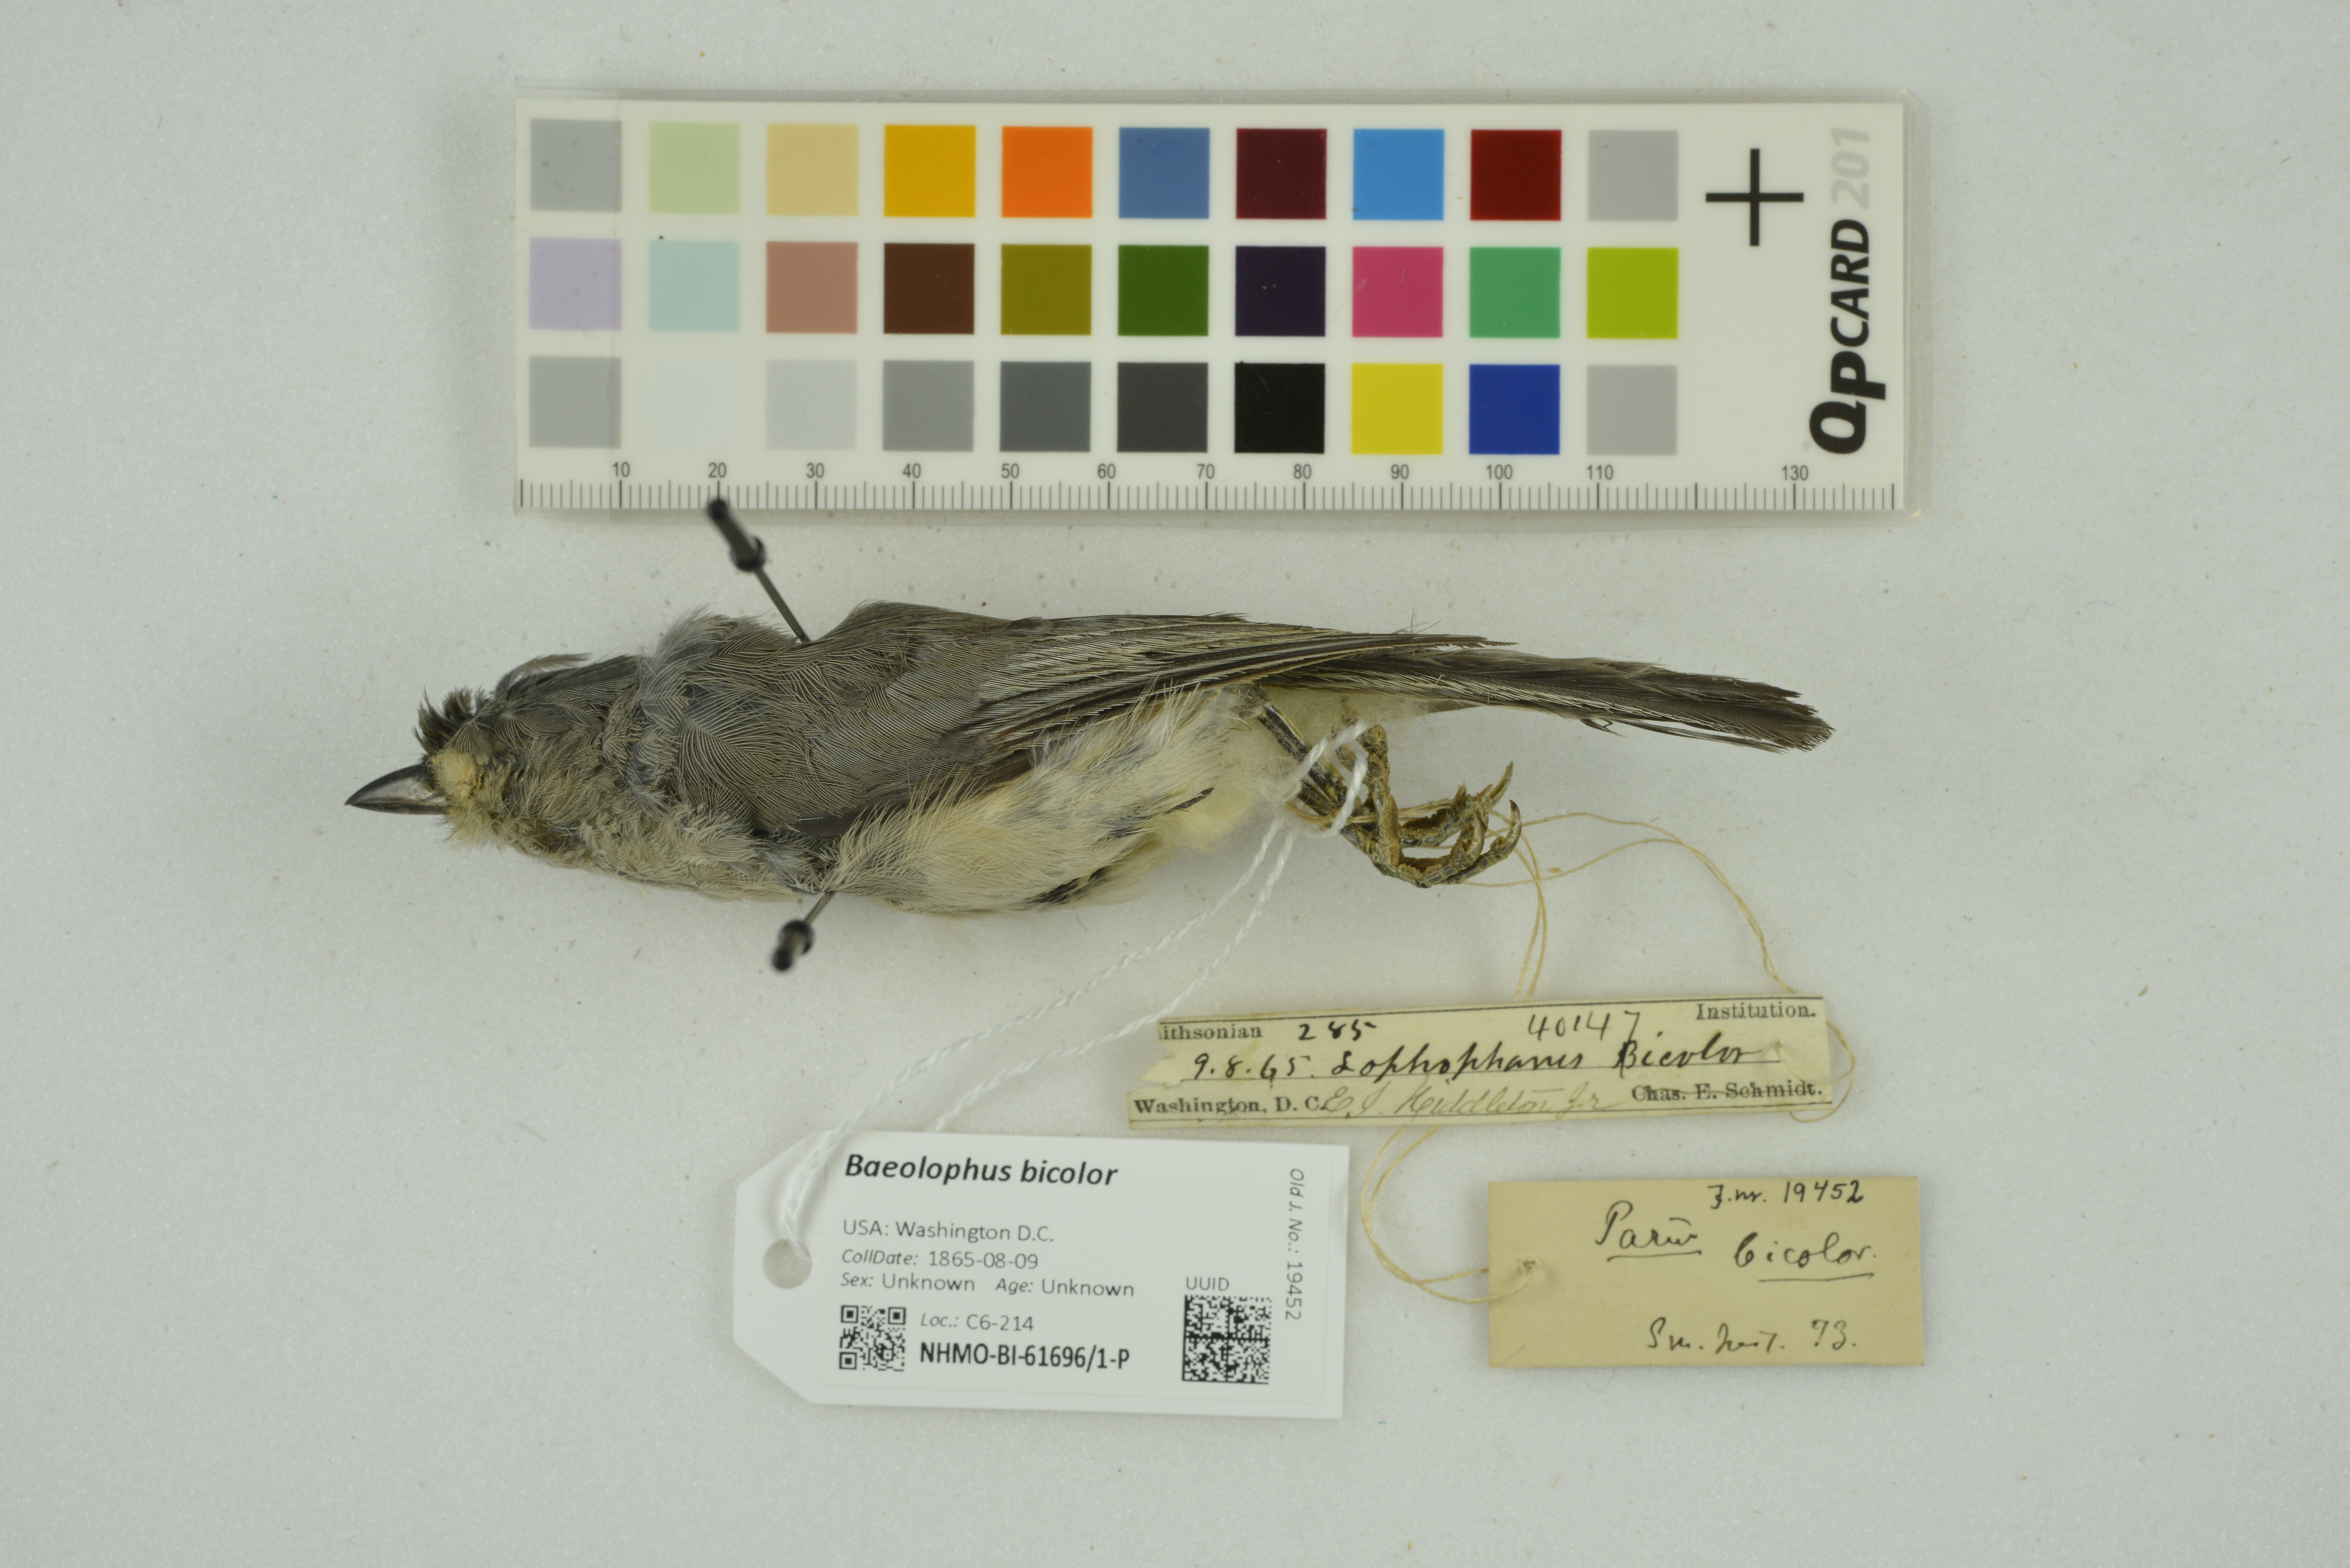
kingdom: Animalia
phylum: Chordata
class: Aves
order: Passeriformes
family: Paridae
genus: Baeolophus
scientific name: Baeolophus bicolor
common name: Tufted titmouse
